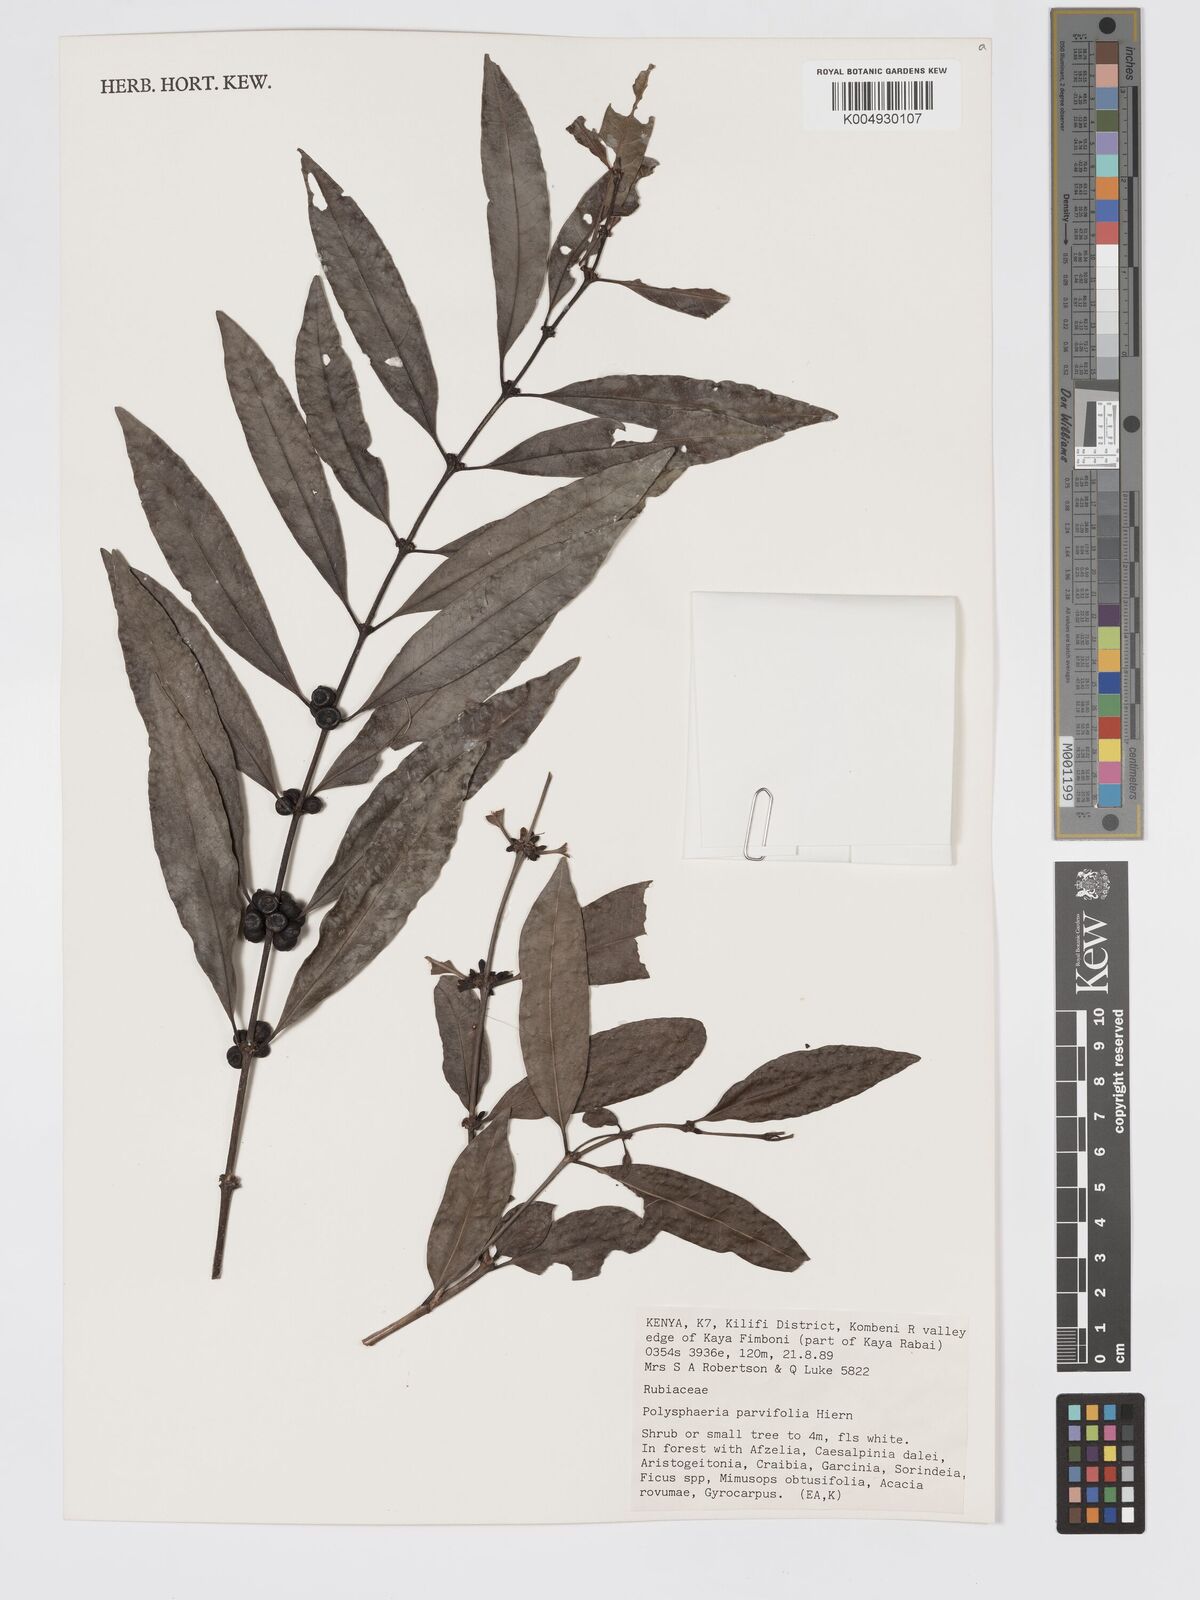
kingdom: Plantae
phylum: Tracheophyta
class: Magnoliopsida
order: Gentianales
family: Rubiaceae
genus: Polysphaeria
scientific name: Polysphaeria parvifolia
